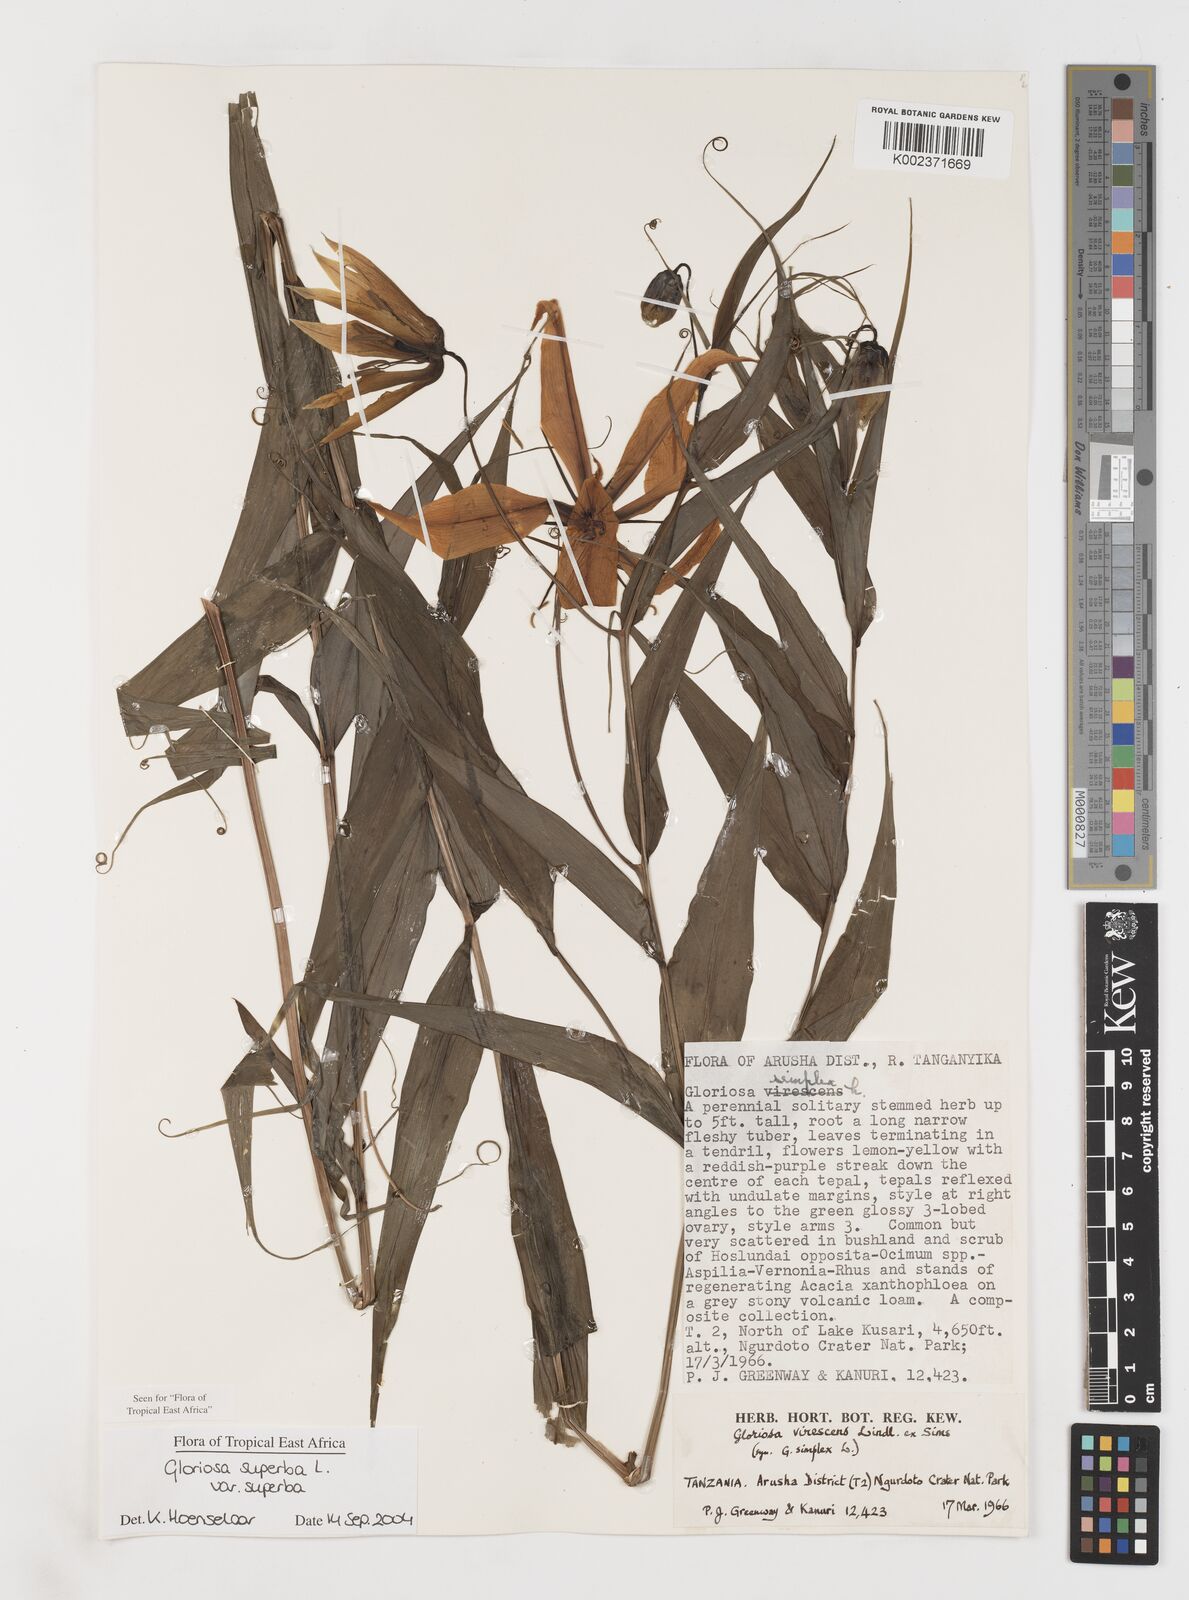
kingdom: Plantae
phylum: Tracheophyta
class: Liliopsida
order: Liliales
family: Colchicaceae
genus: Gloriosa
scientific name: Gloriosa simplex
